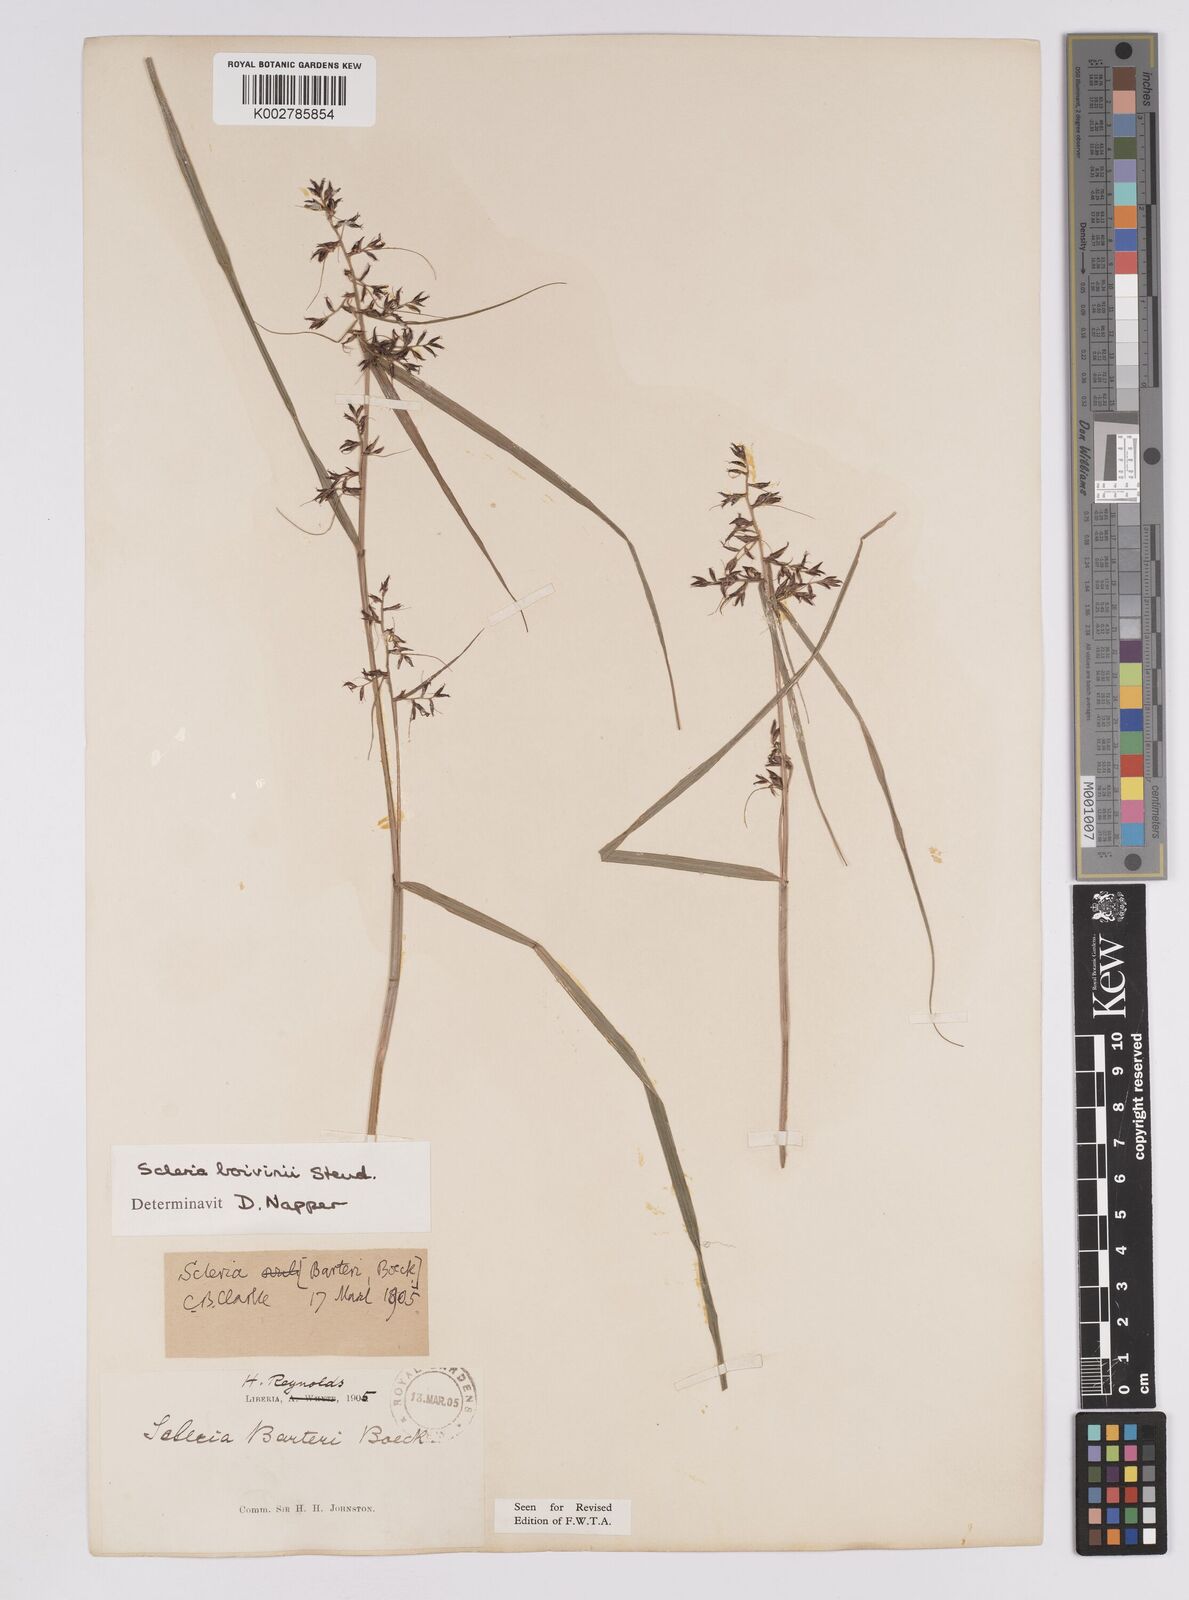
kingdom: Plantae
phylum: Tracheophyta
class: Liliopsida
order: Poales
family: Cyperaceae
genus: Scleria
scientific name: Scleria boivinii
